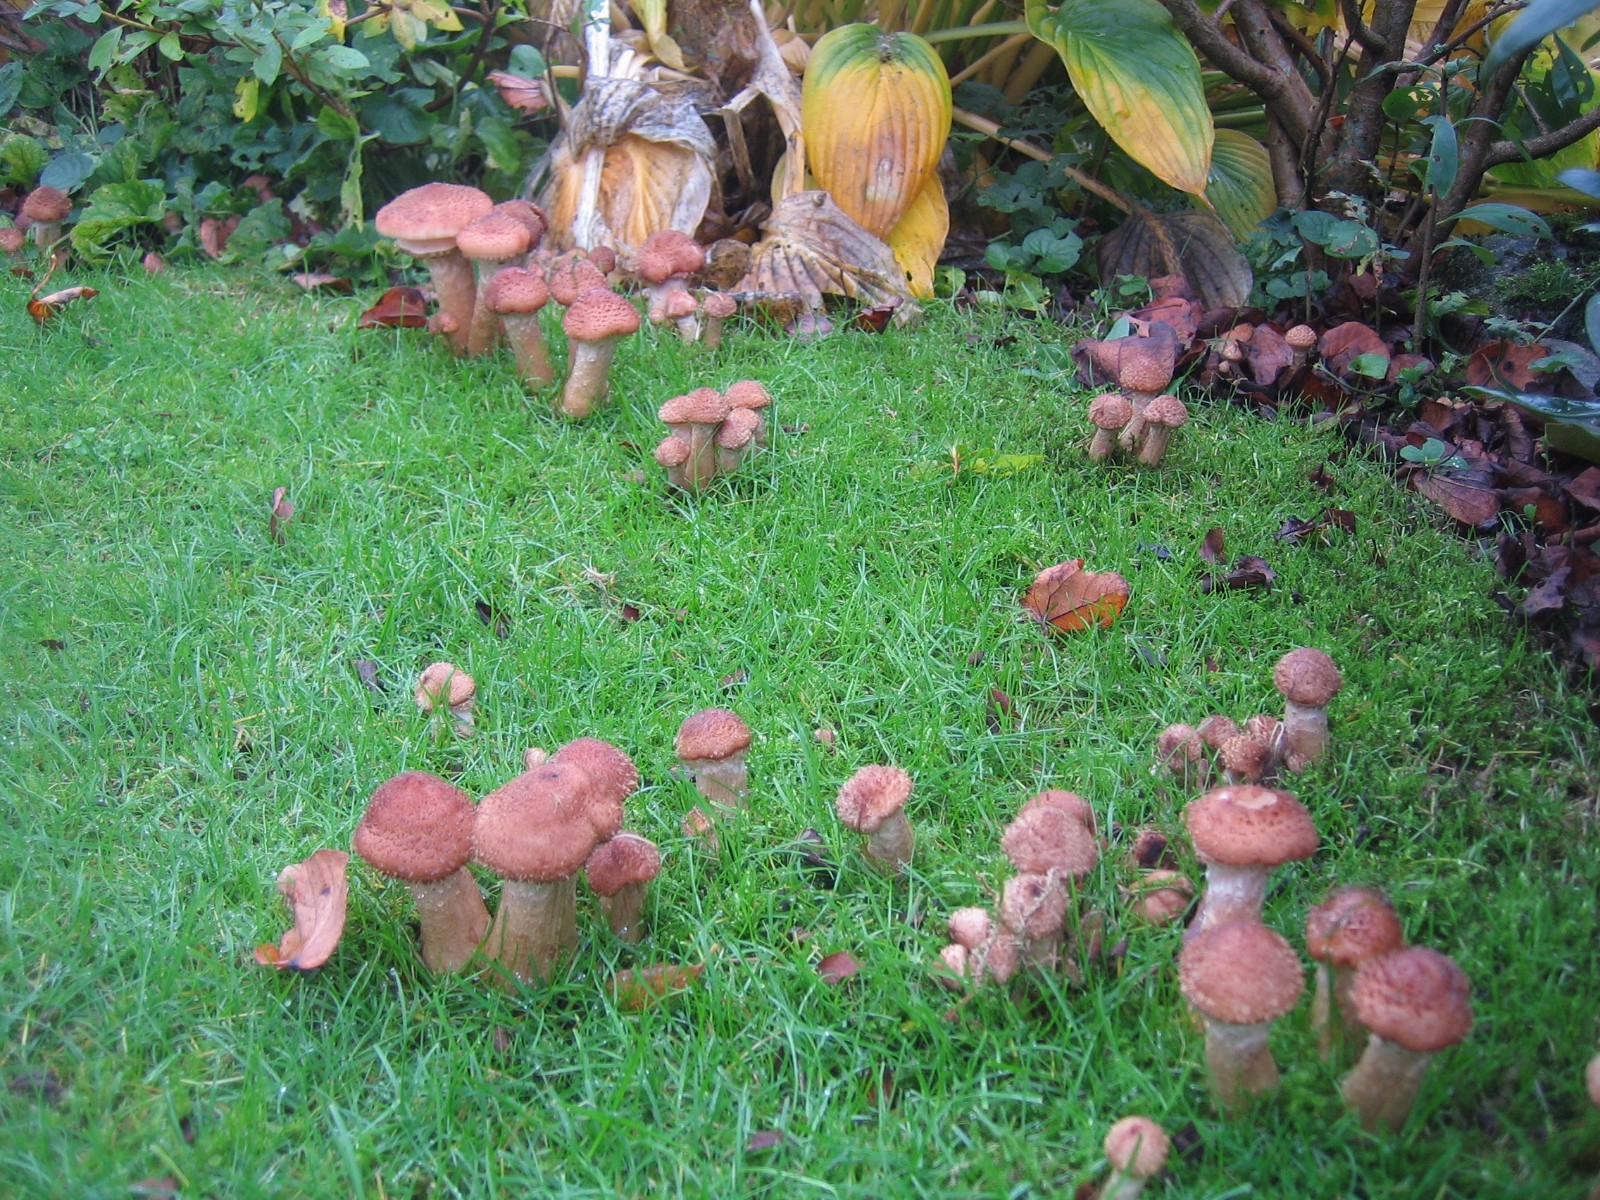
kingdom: Fungi
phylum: Basidiomycota
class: Agaricomycetes
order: Agaricales
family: Physalacriaceae
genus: Armillaria
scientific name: Armillaria lutea
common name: køllestokket honningsvamp
